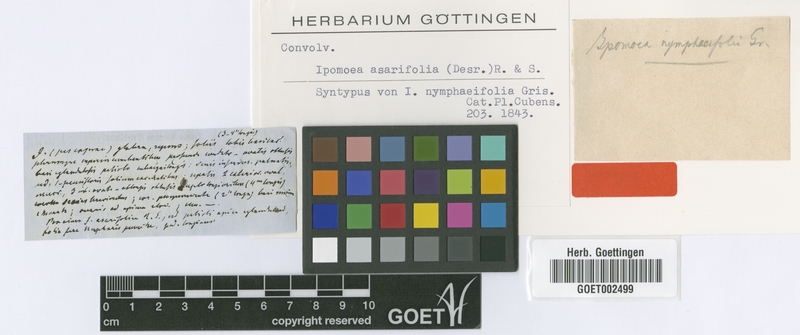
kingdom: Plantae
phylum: Tracheophyta
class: Magnoliopsida
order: Solanales
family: Convolvulaceae
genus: Ipomoea
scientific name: Ipomoea asarifolia
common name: Ginger-leaf morning-glory
